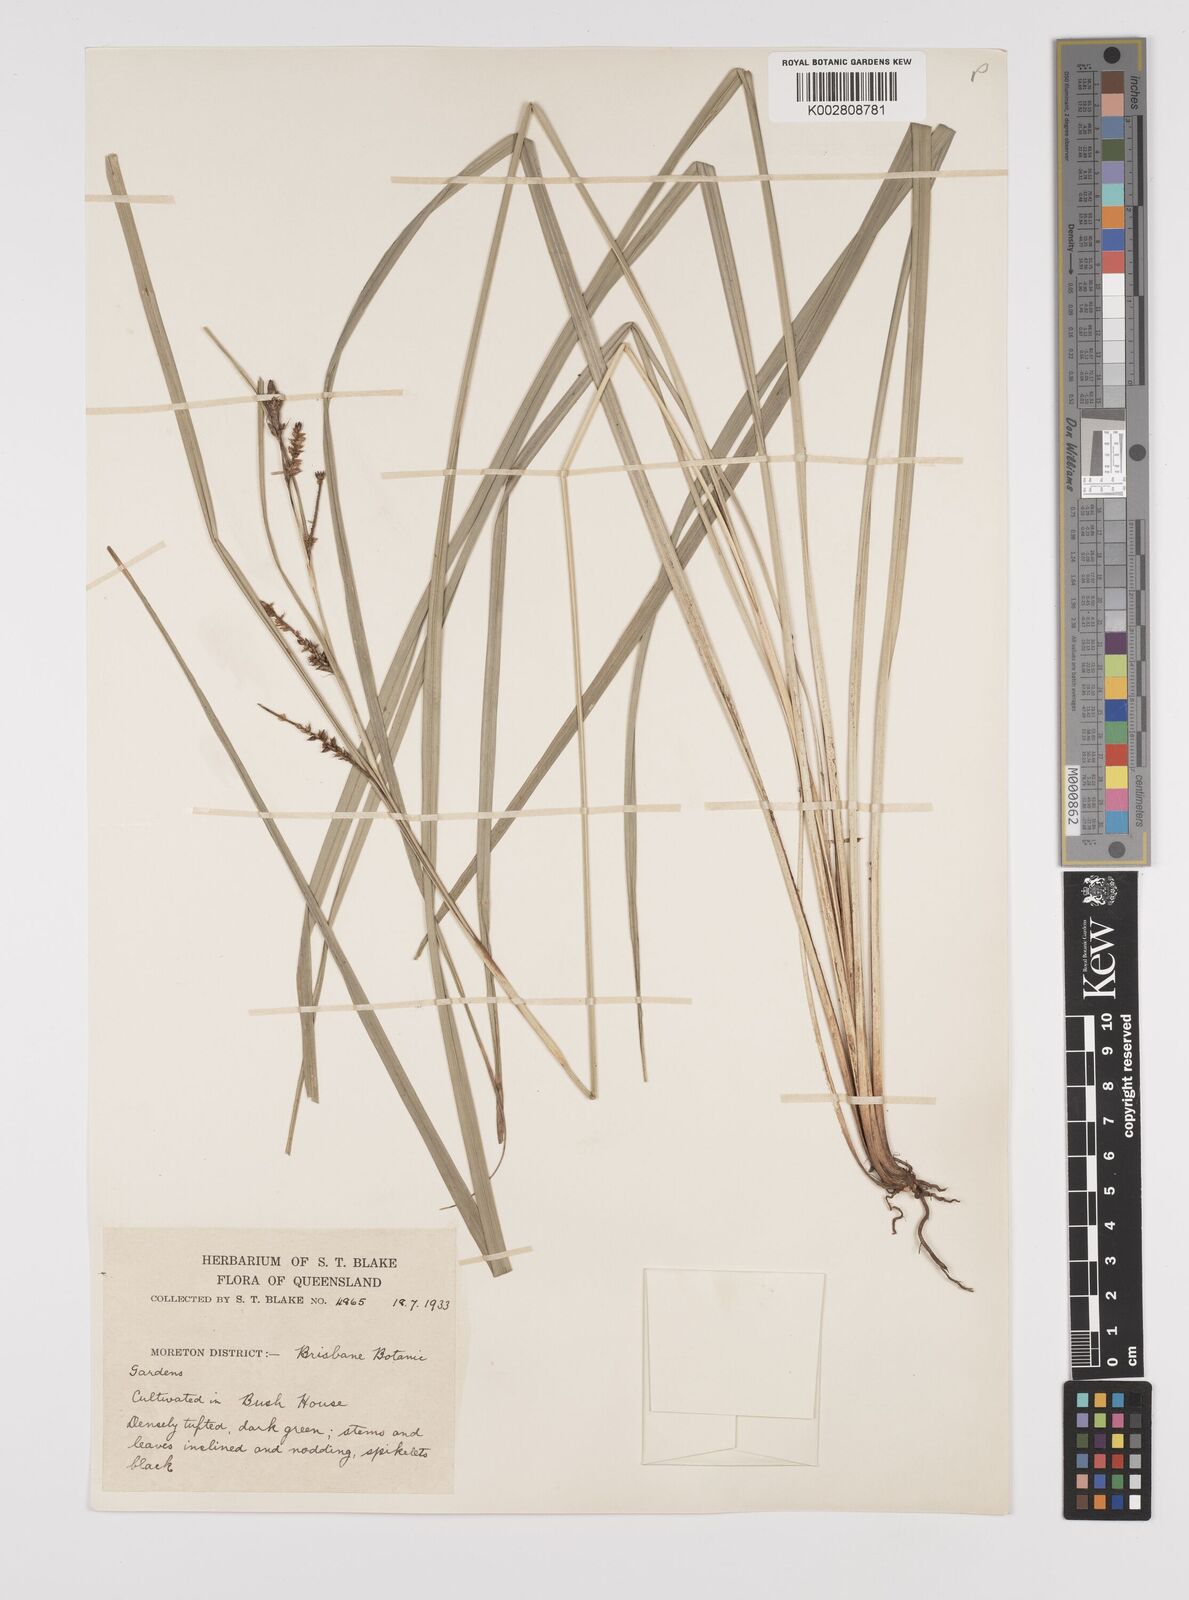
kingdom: Plantae
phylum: Tracheophyta
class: Liliopsida
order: Poales
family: Cyperaceae
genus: Carex
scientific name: Carex dissita
